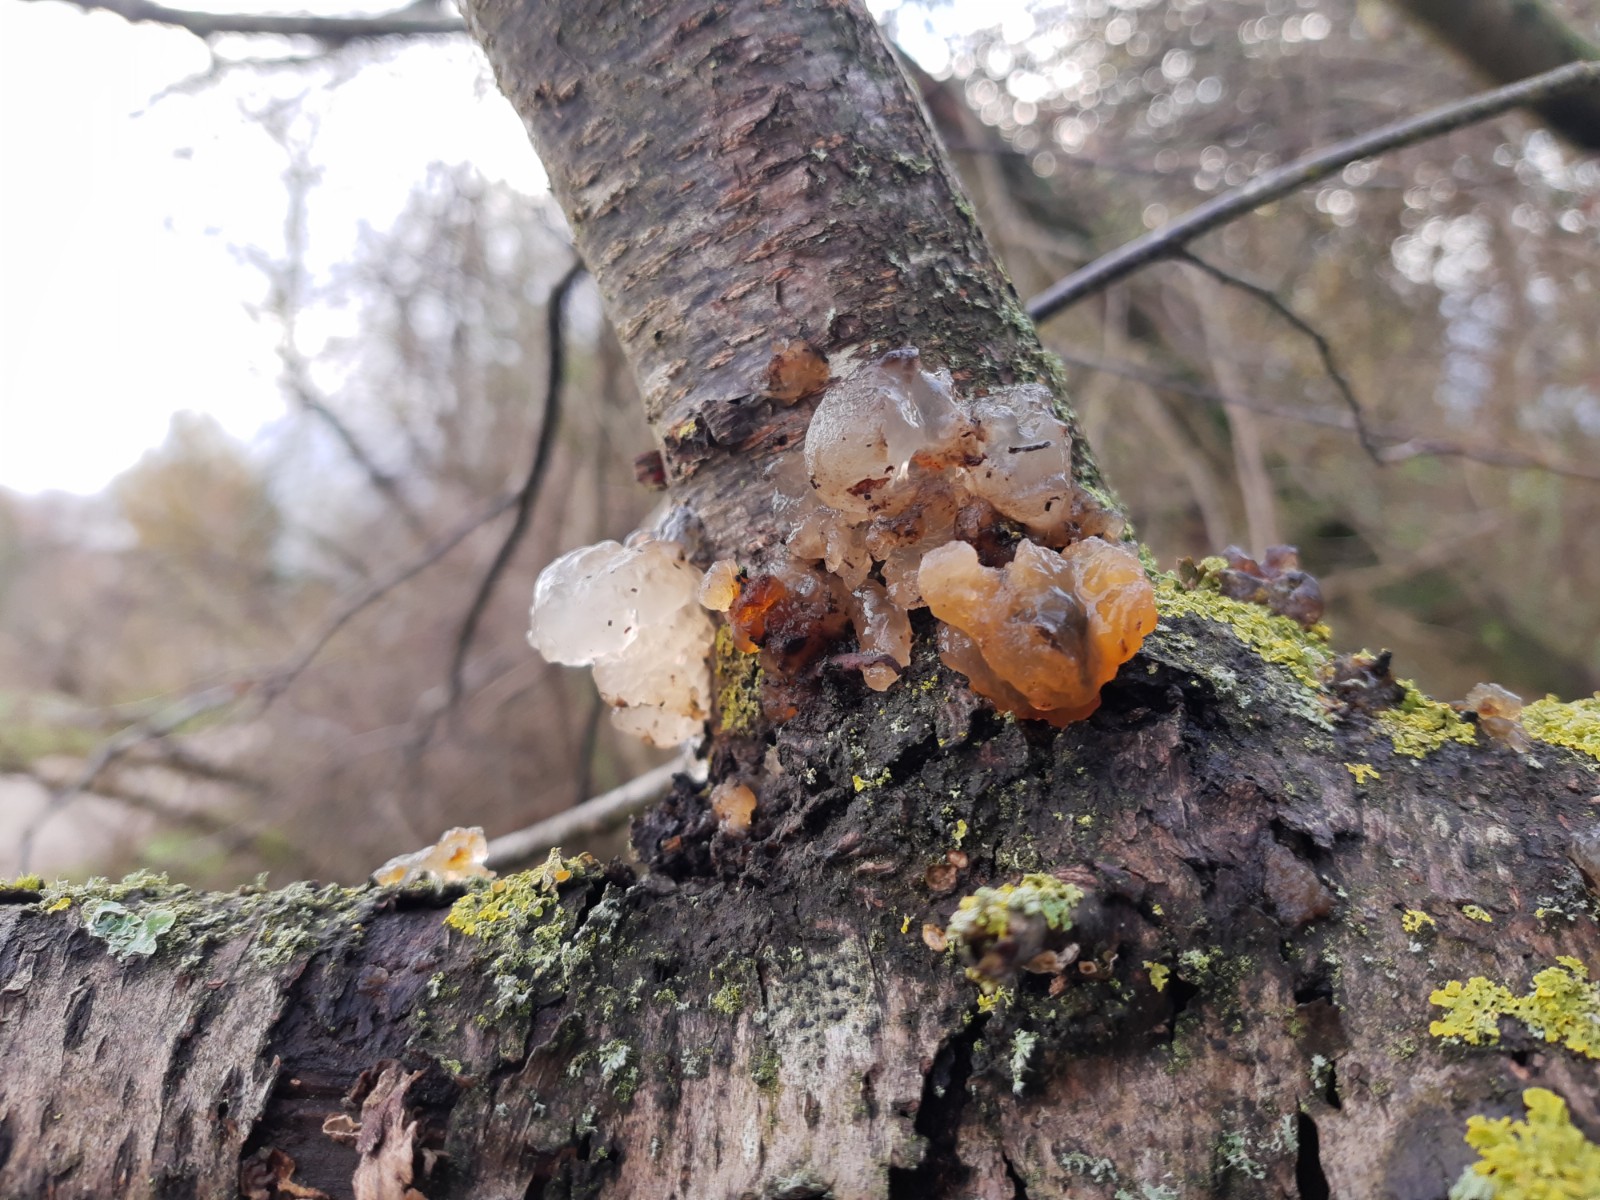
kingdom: Fungi
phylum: Basidiomycota
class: Agaricomycetes
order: Auriculariales
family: Hyaloriaceae
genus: Myxarium
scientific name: Myxarium hyalinum
